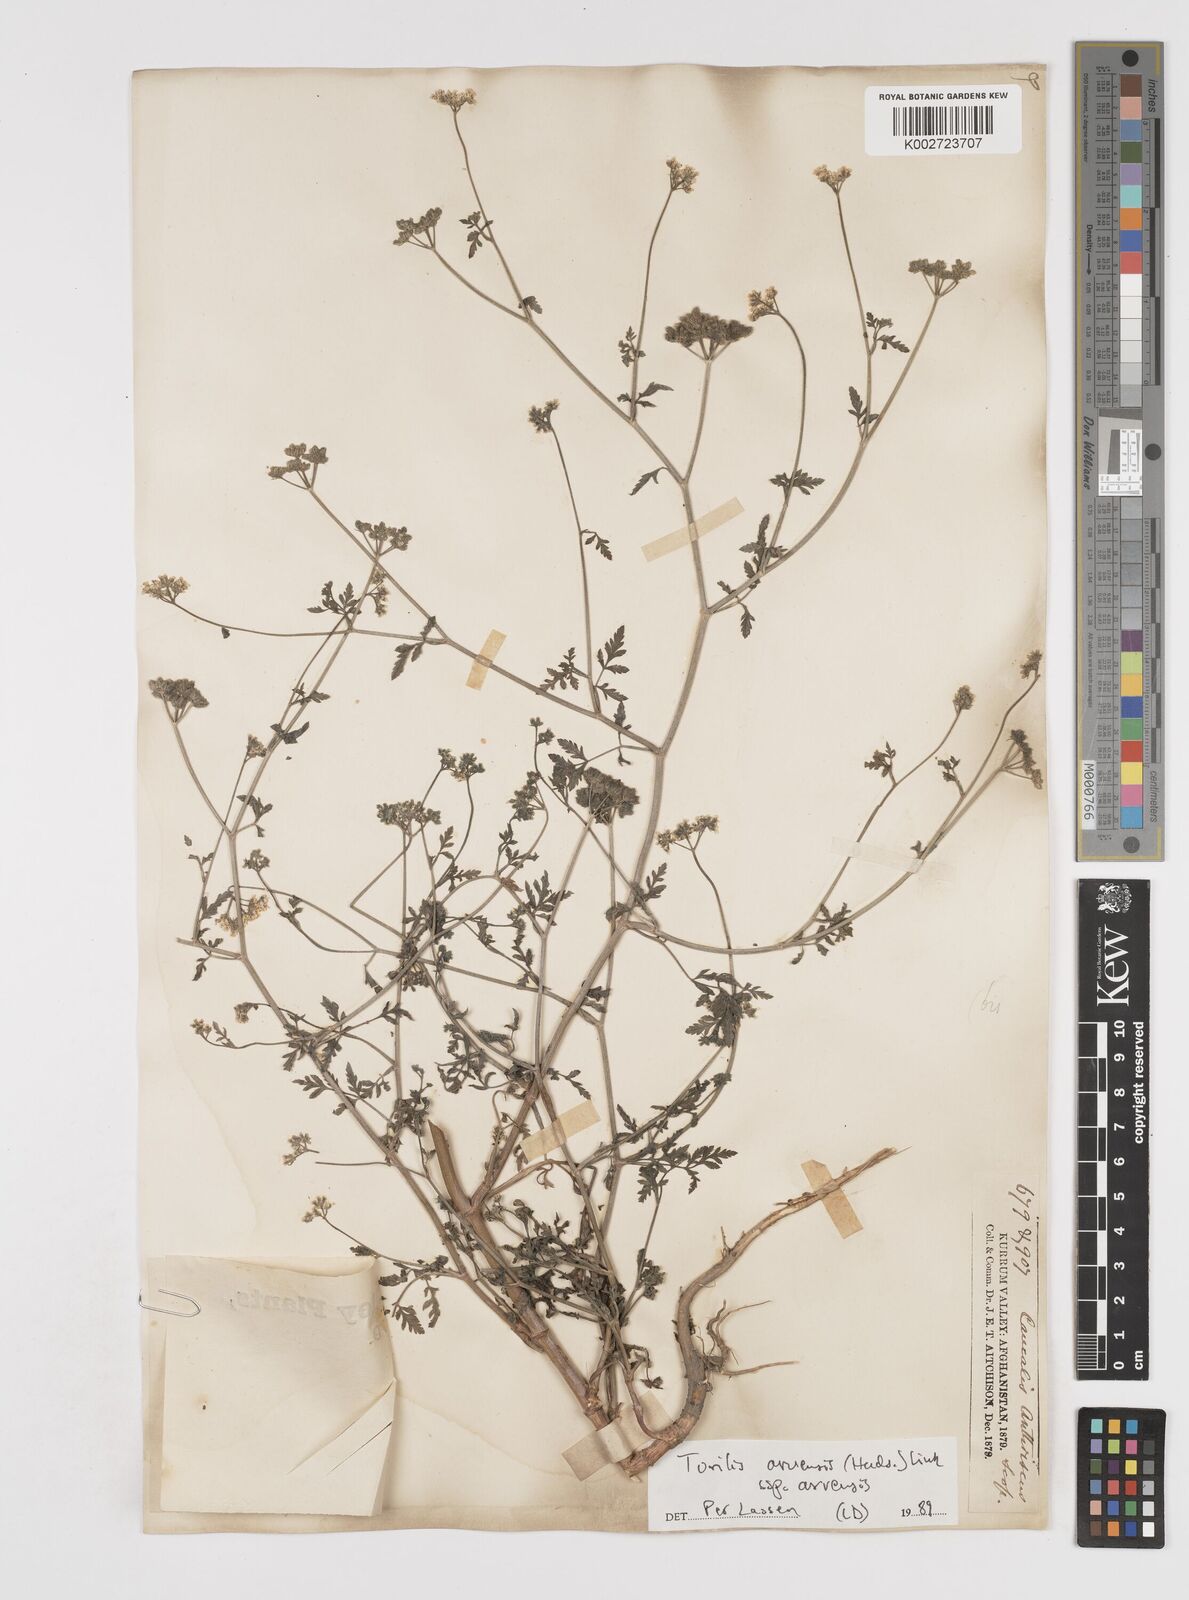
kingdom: Plantae
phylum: Tracheophyta
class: Magnoliopsida
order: Apiales
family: Apiaceae
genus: Torilis
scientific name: Torilis arvensis
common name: Spreading hedge-parsley
